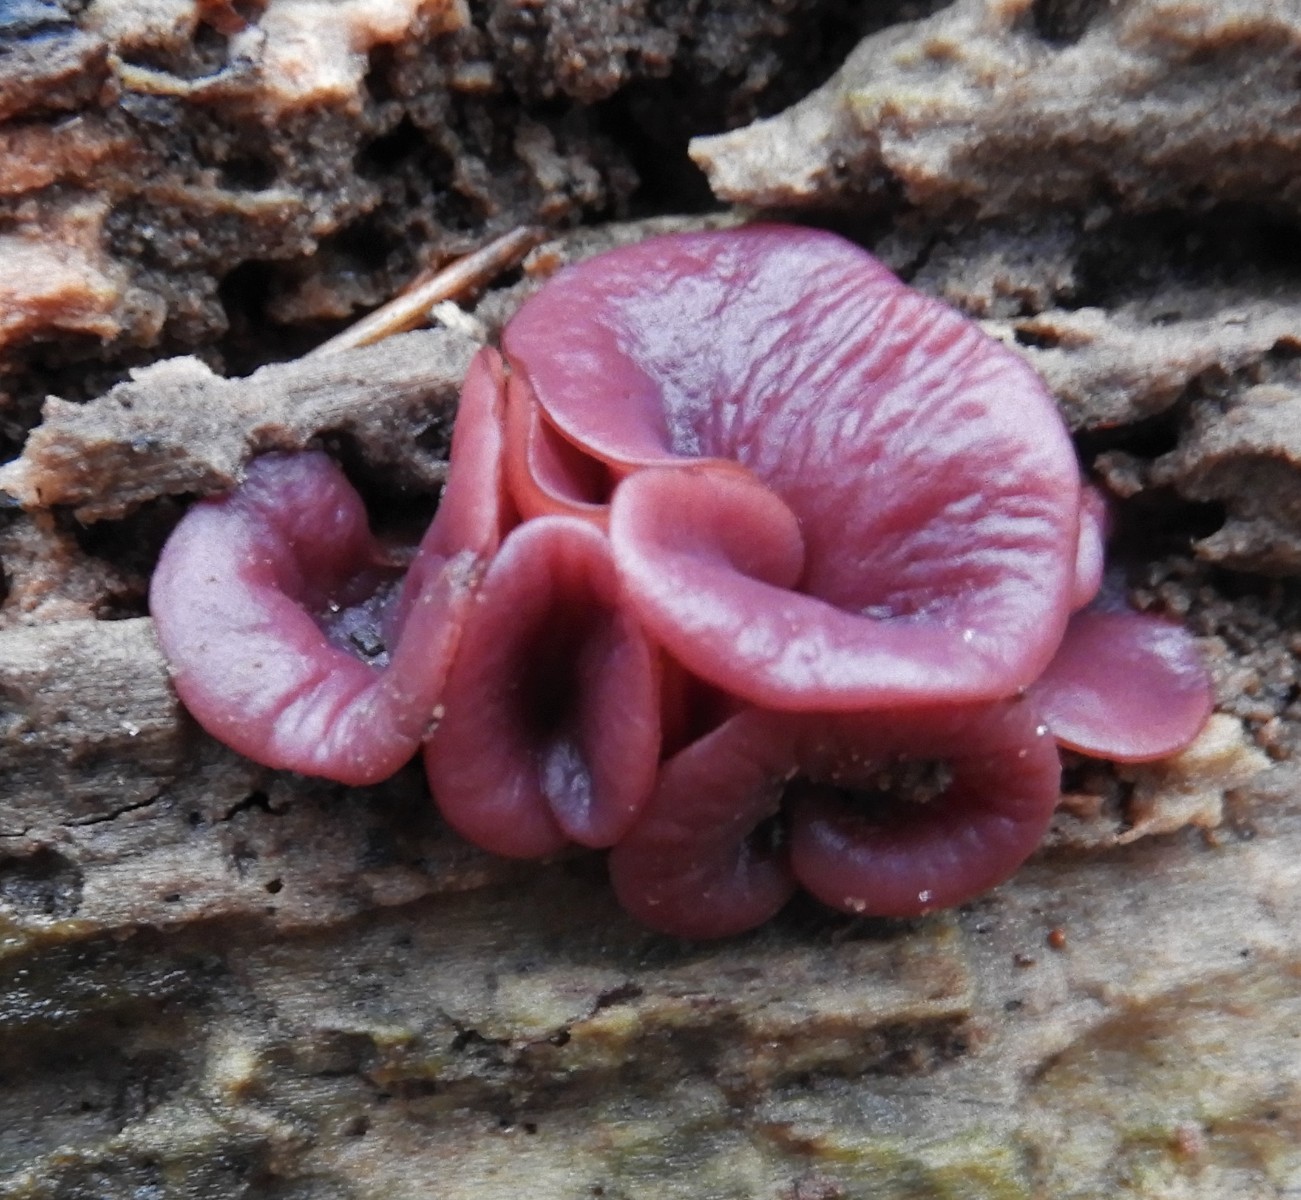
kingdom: Fungi
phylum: Ascomycota
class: Leotiomycetes
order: Helotiales
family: Gelatinodiscaceae
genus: Ascocoryne
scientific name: Ascocoryne cylichnium
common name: stor sejskive
